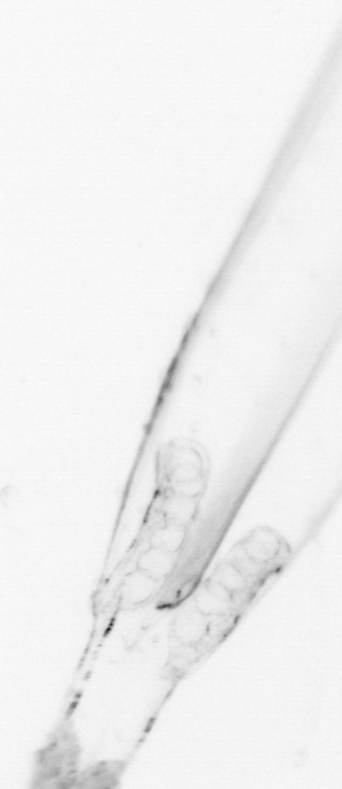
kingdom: Animalia
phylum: Chaetognatha
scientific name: Chaetognatha
